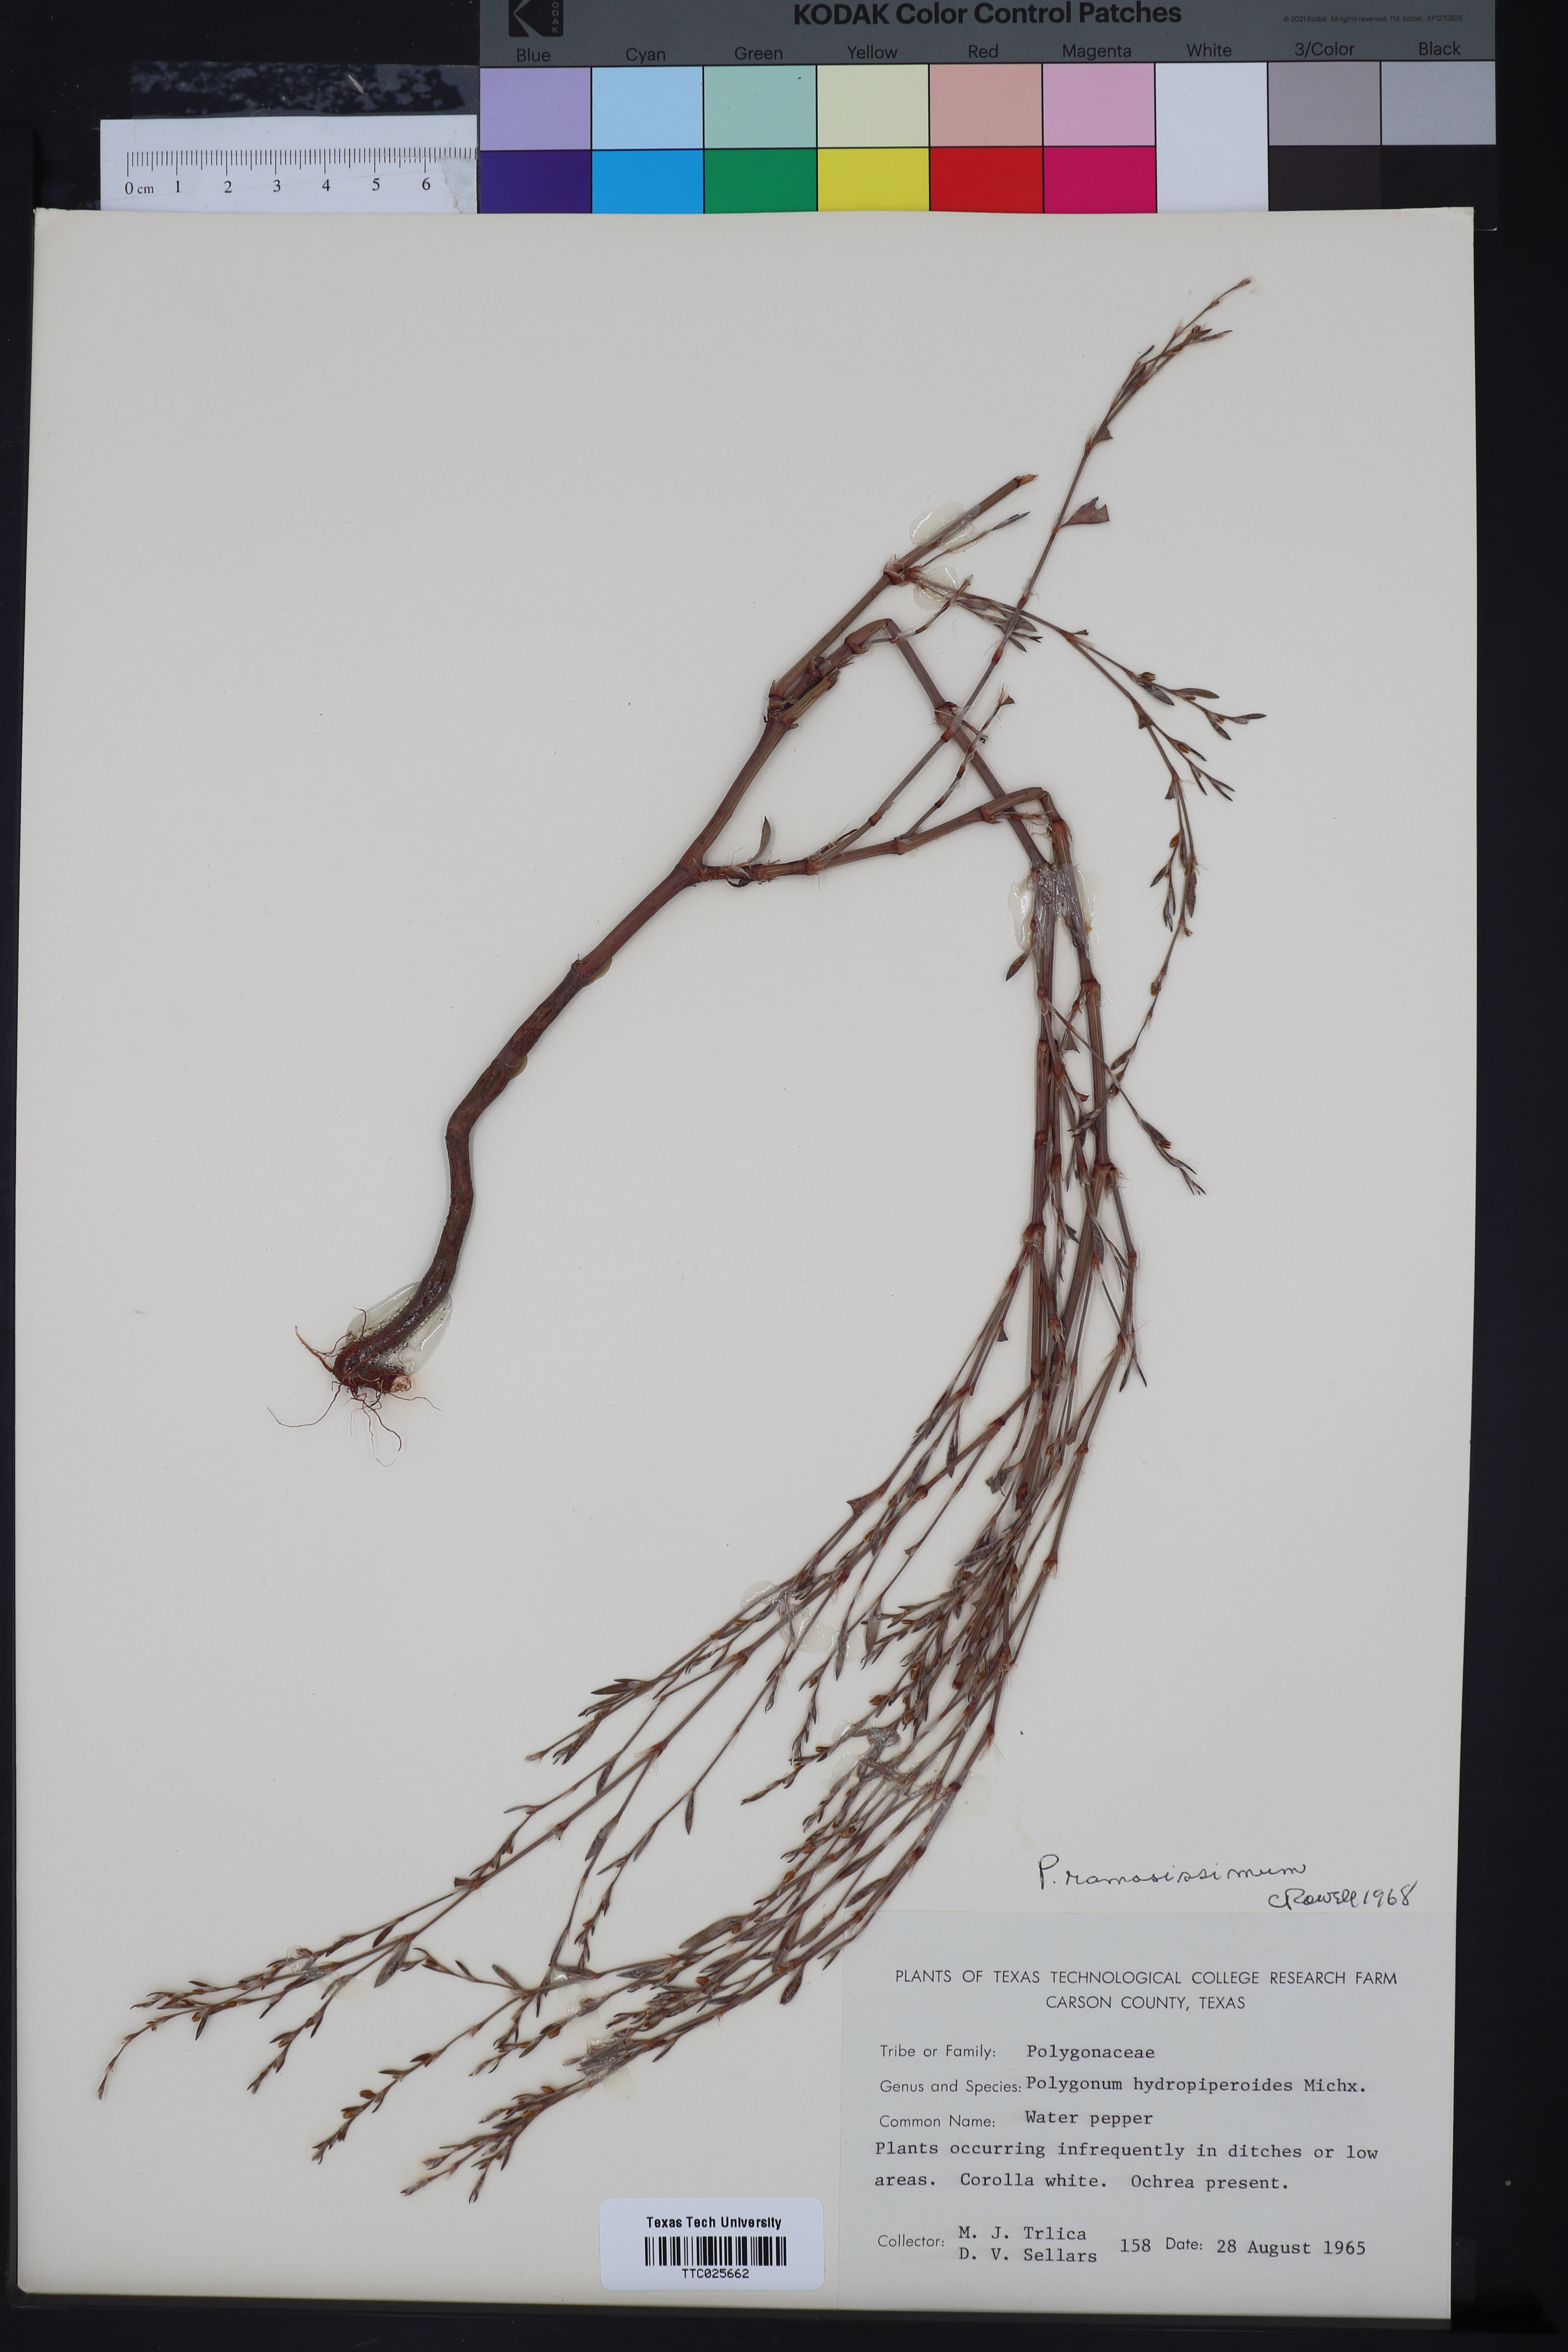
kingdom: Plantae
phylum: Tracheophyta
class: Magnoliopsida
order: Caryophyllales
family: Polygonaceae
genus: Polygonum
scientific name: Polygonum ramosissimum
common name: Bushy knotweed
